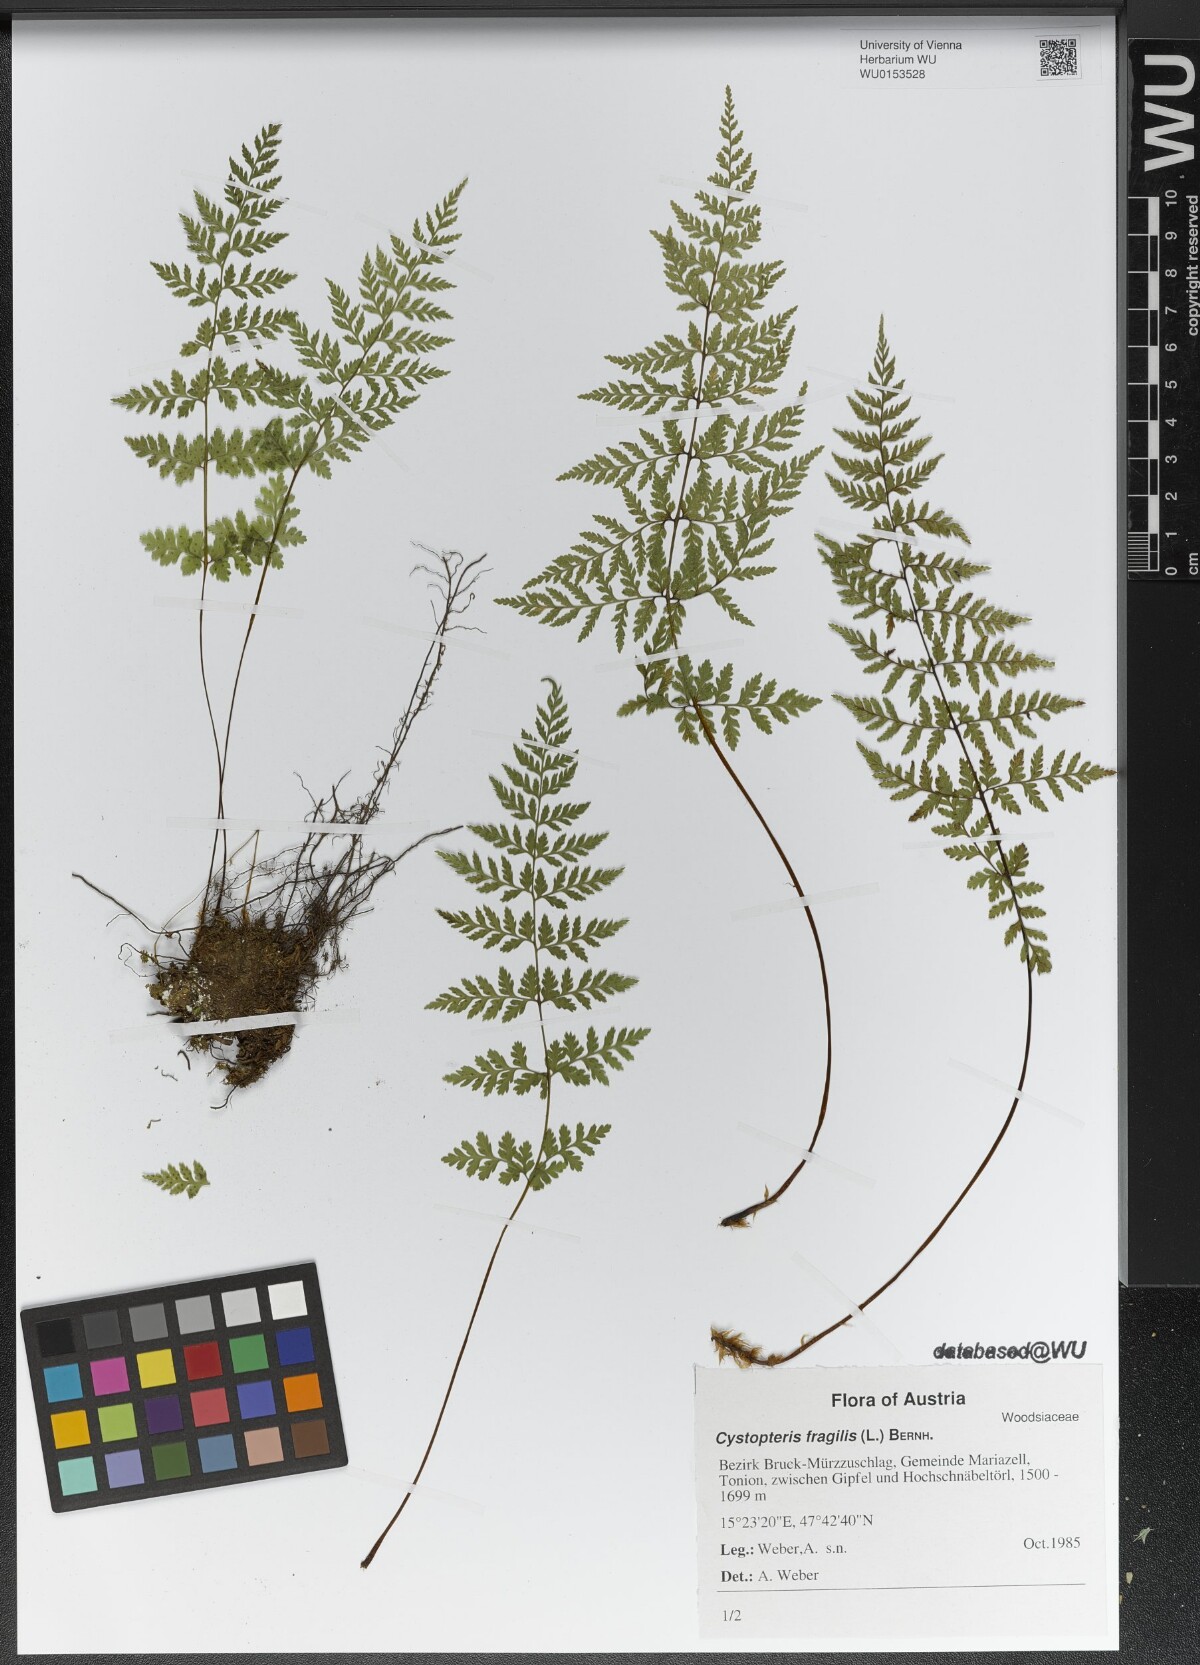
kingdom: Plantae
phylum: Tracheophyta
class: Polypodiopsida
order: Polypodiales
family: Cystopteridaceae
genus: Cystopteris
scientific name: Cystopteris fragilis
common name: Brittle bladder fern
